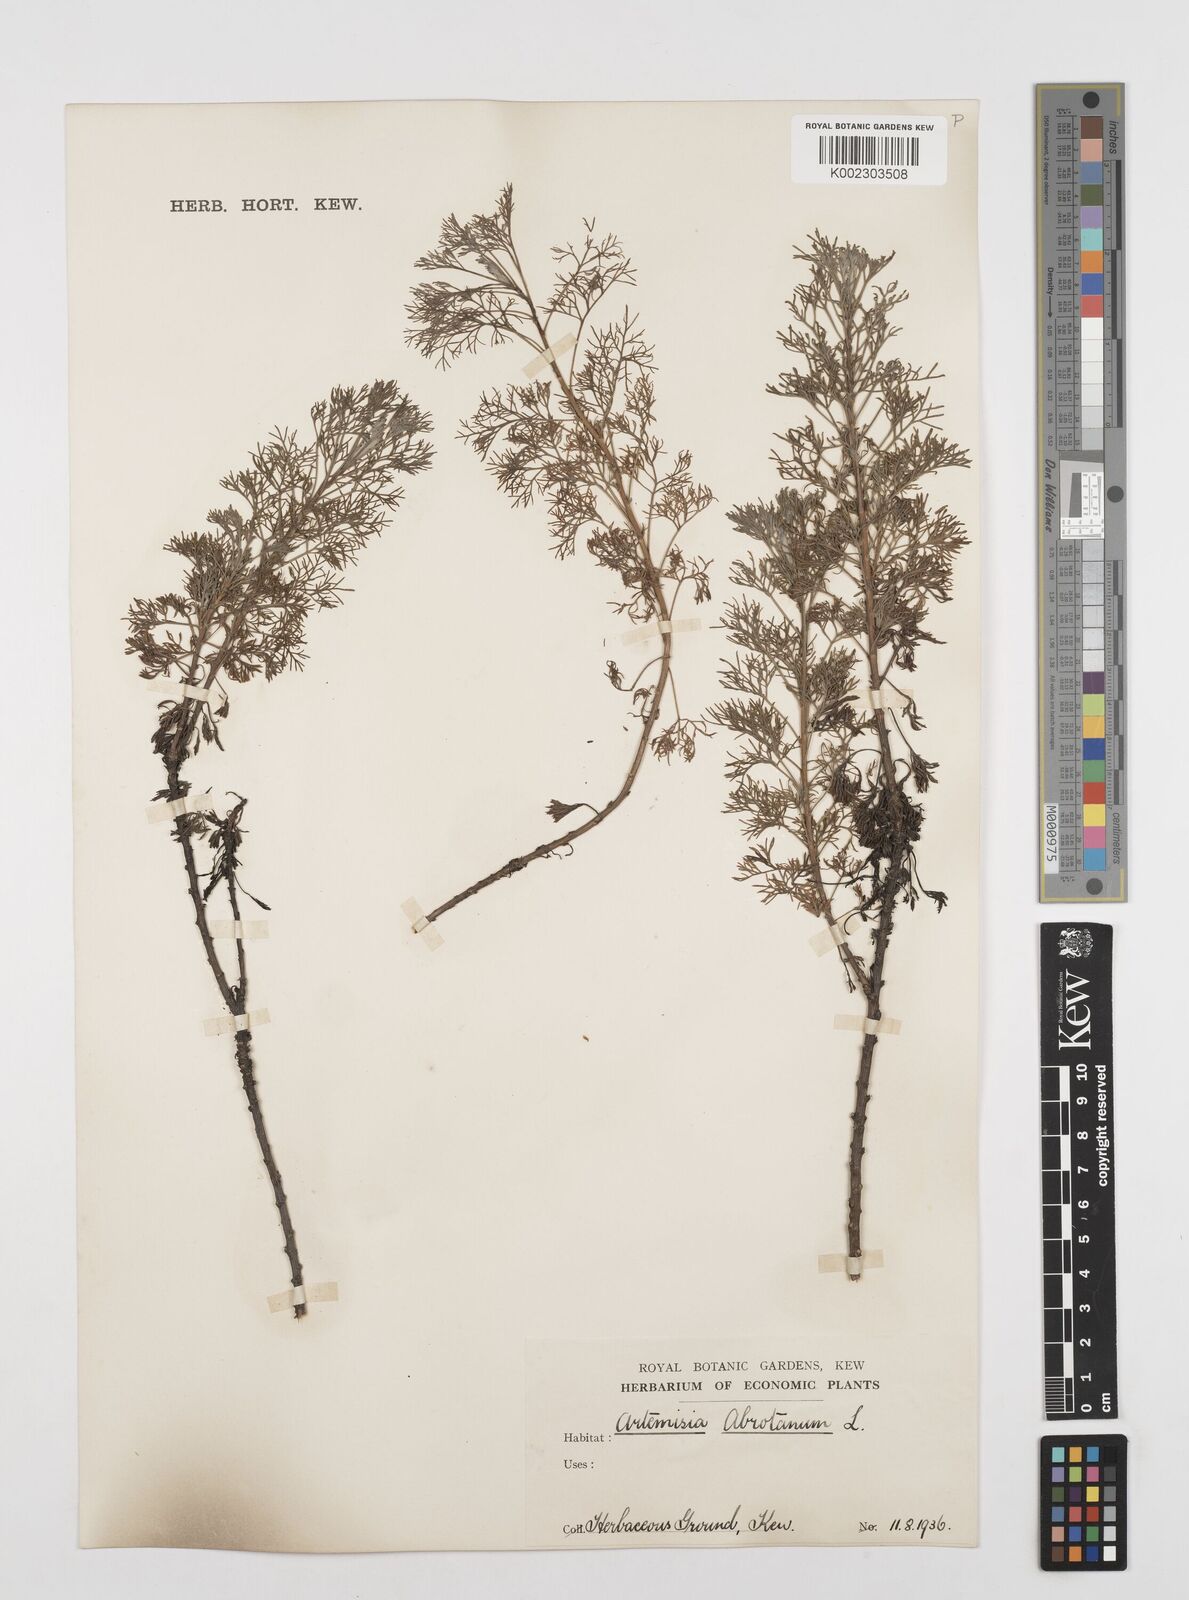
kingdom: Plantae
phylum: Tracheophyta
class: Magnoliopsida
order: Asterales
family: Asteraceae
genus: Artemisia
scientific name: Artemisia abrotanum
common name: Southernwood
